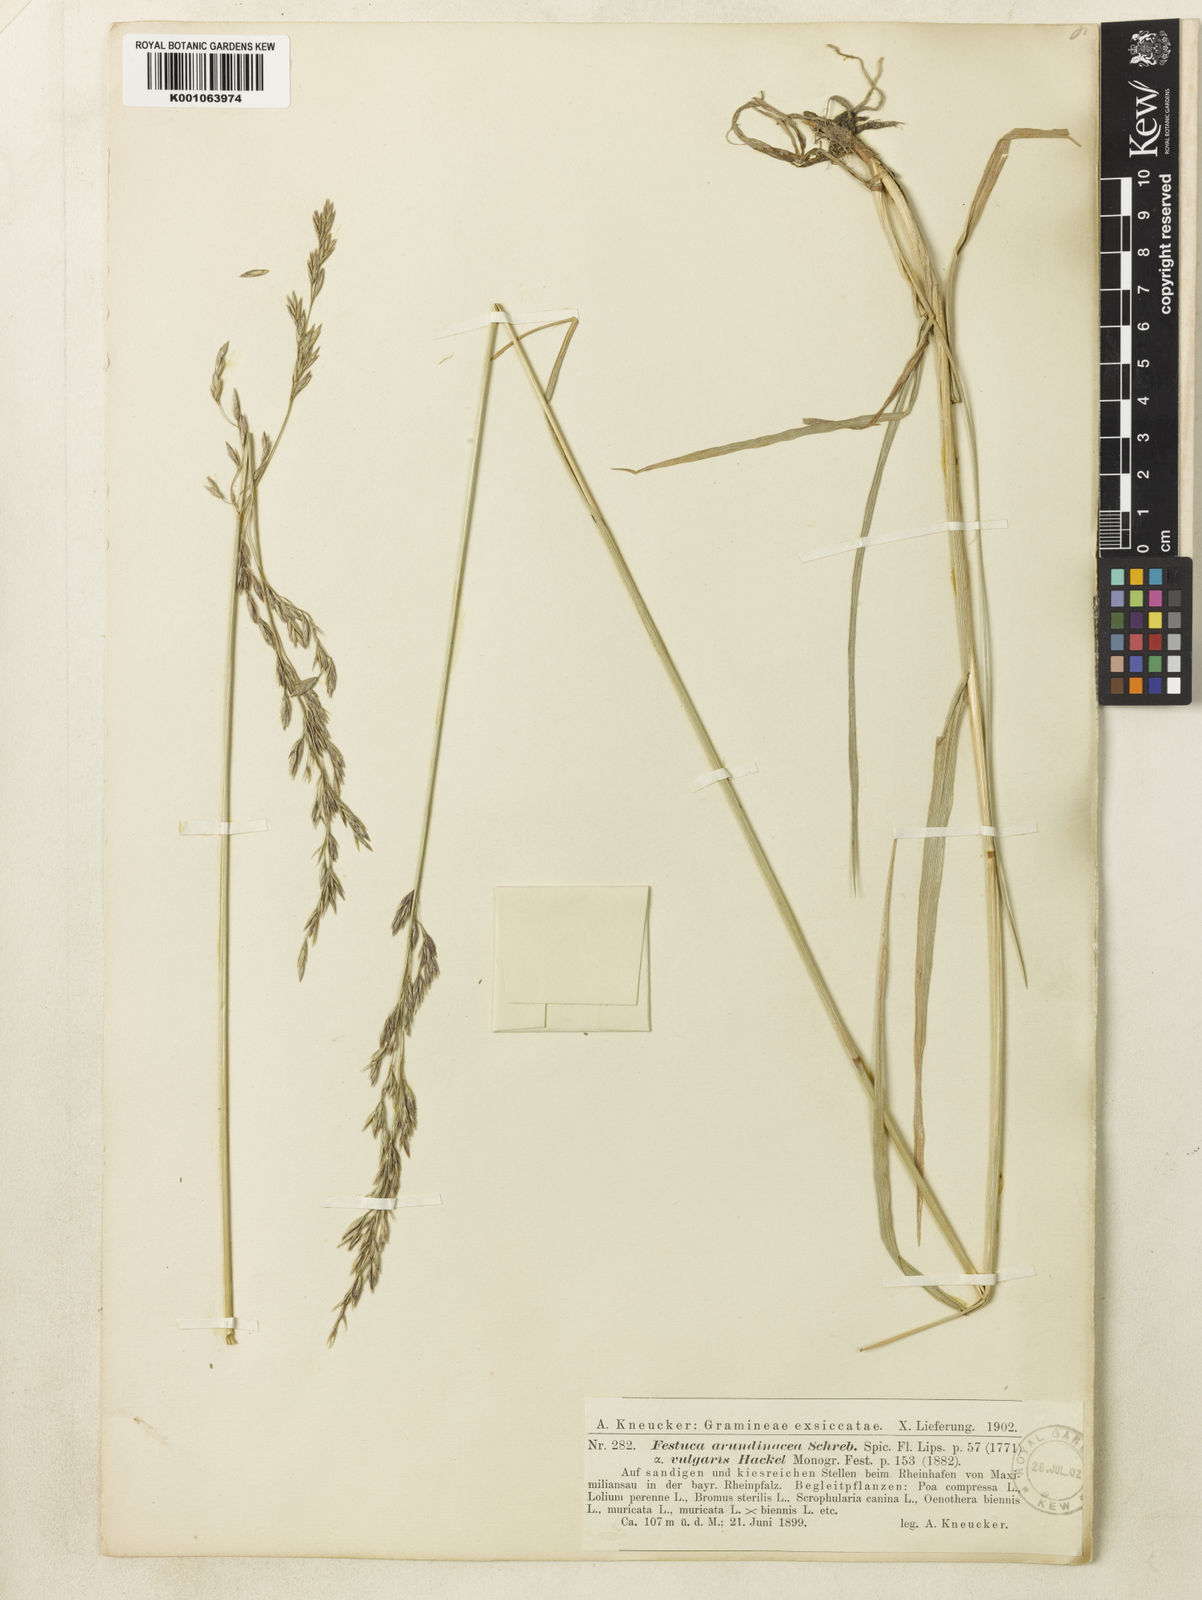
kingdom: Plantae
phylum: Tracheophyta
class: Liliopsida
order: Poales
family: Poaceae
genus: Lolium
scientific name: Lolium arundinaceum
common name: Reed fescue
